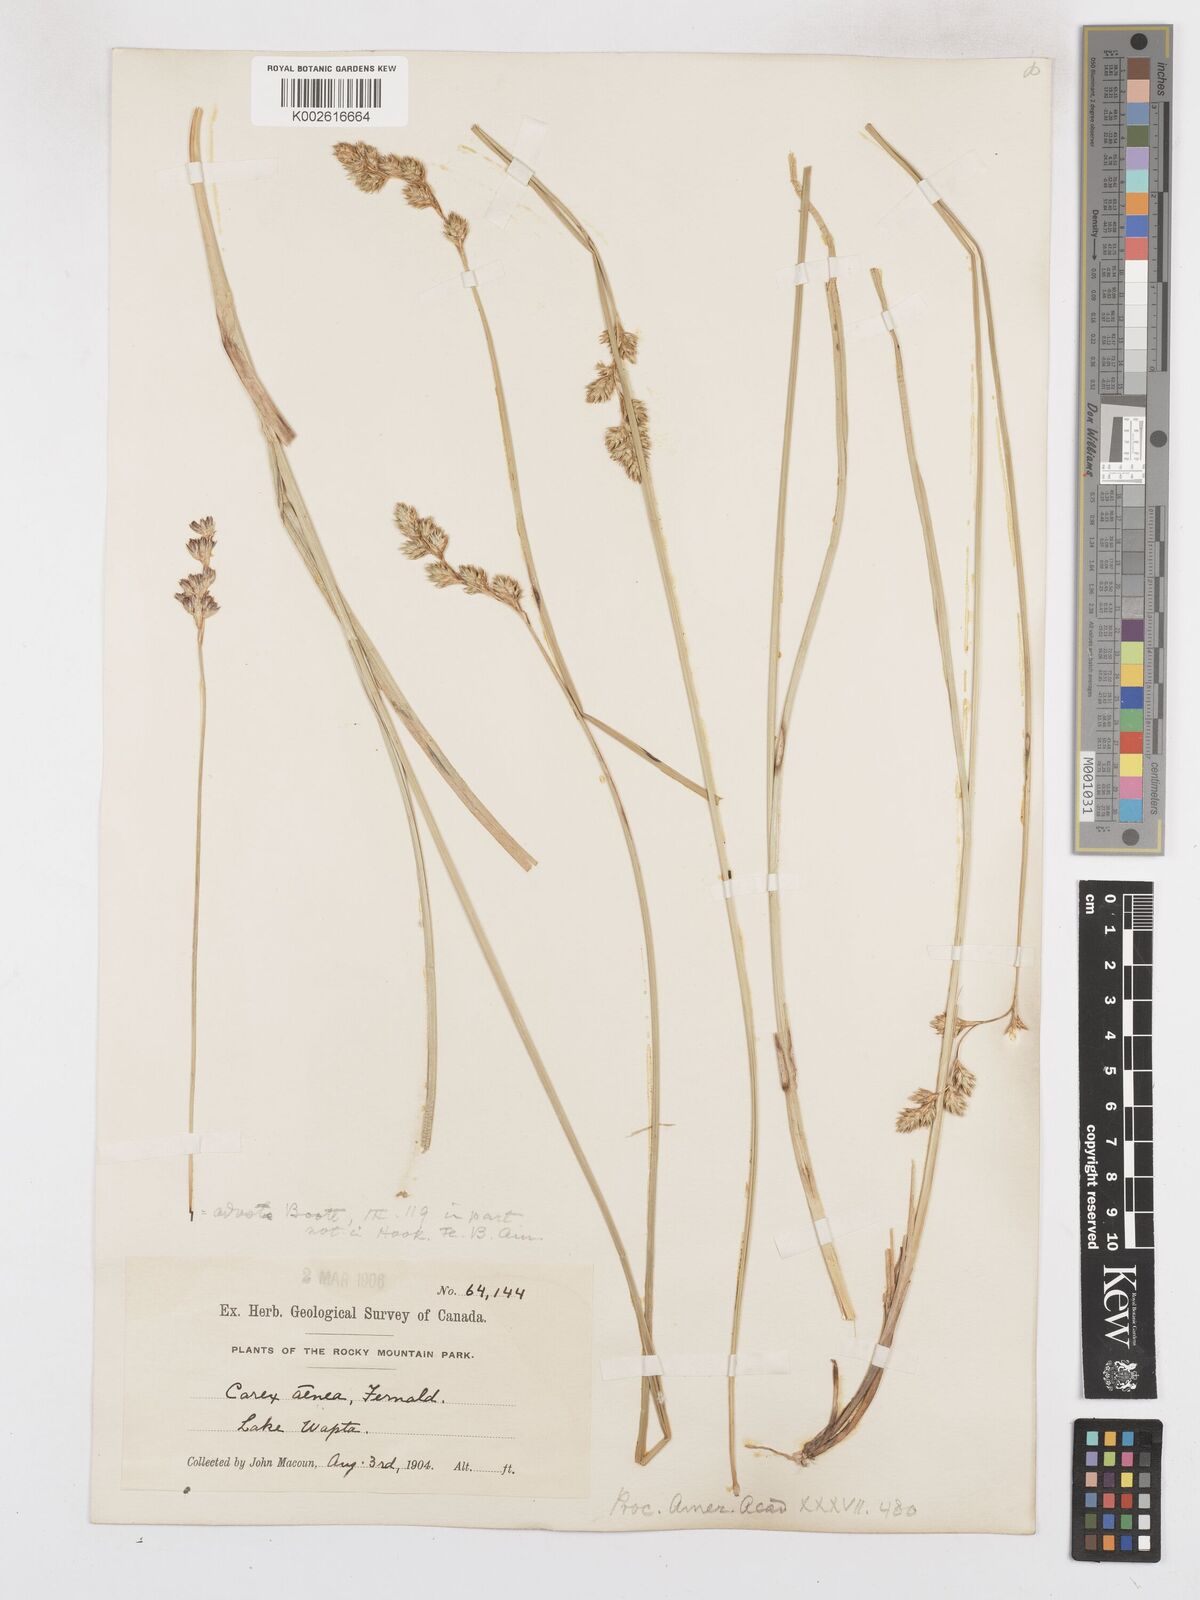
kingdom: Plantae
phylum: Tracheophyta
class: Liliopsida
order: Poales
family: Cyperaceae
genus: Carex
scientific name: Carex foenea
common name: Bronze sedge
